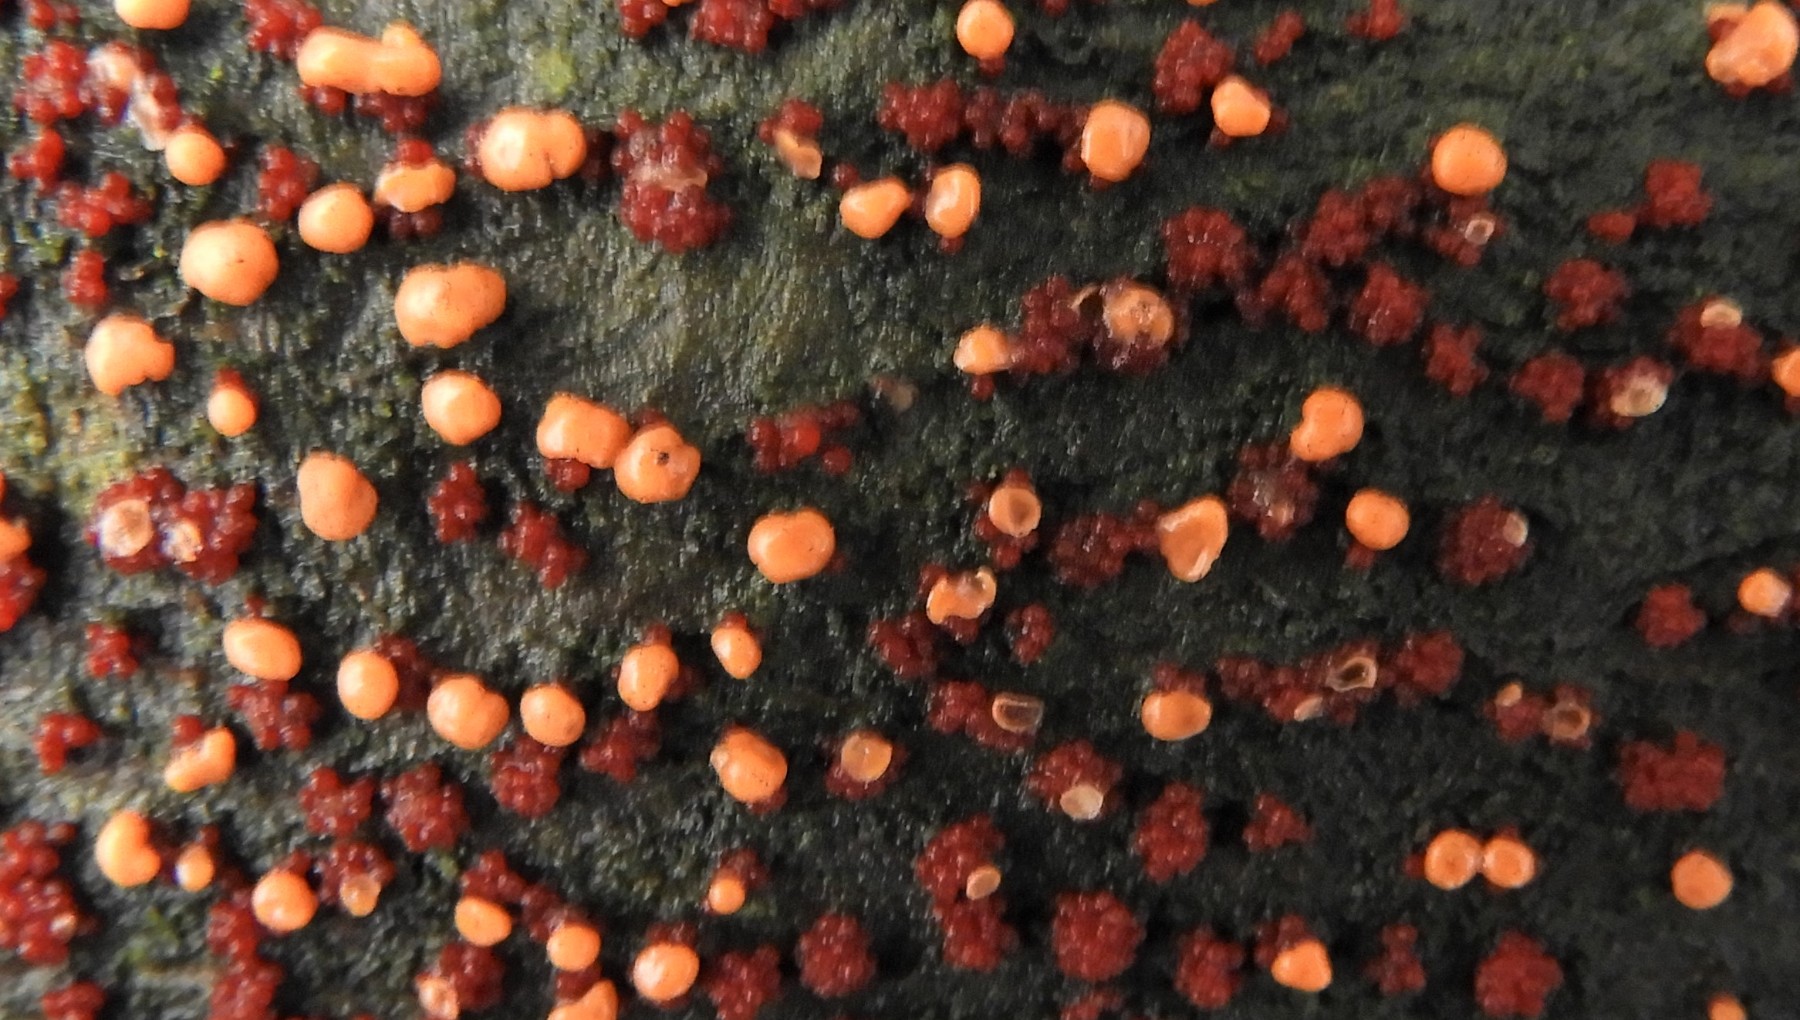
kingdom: Fungi
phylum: Ascomycota
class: Sordariomycetes
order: Hypocreales
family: Nectriaceae
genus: Nectria
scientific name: Nectria cinnabarina
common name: almindelig cinnobersvamp
